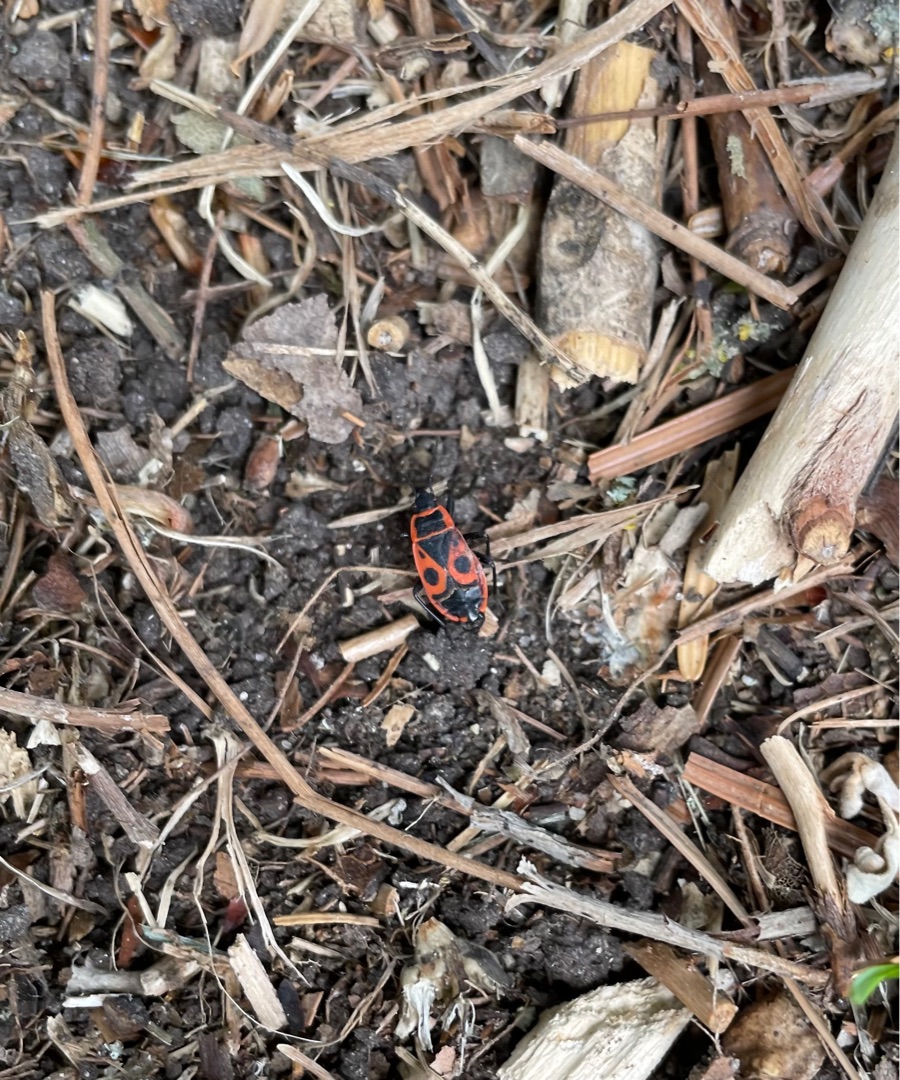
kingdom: Animalia
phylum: Arthropoda
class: Insecta
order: Hemiptera
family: Pyrrhocoridae
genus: Pyrrhocoris
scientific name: Pyrrhocoris apterus
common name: Ildtæge
